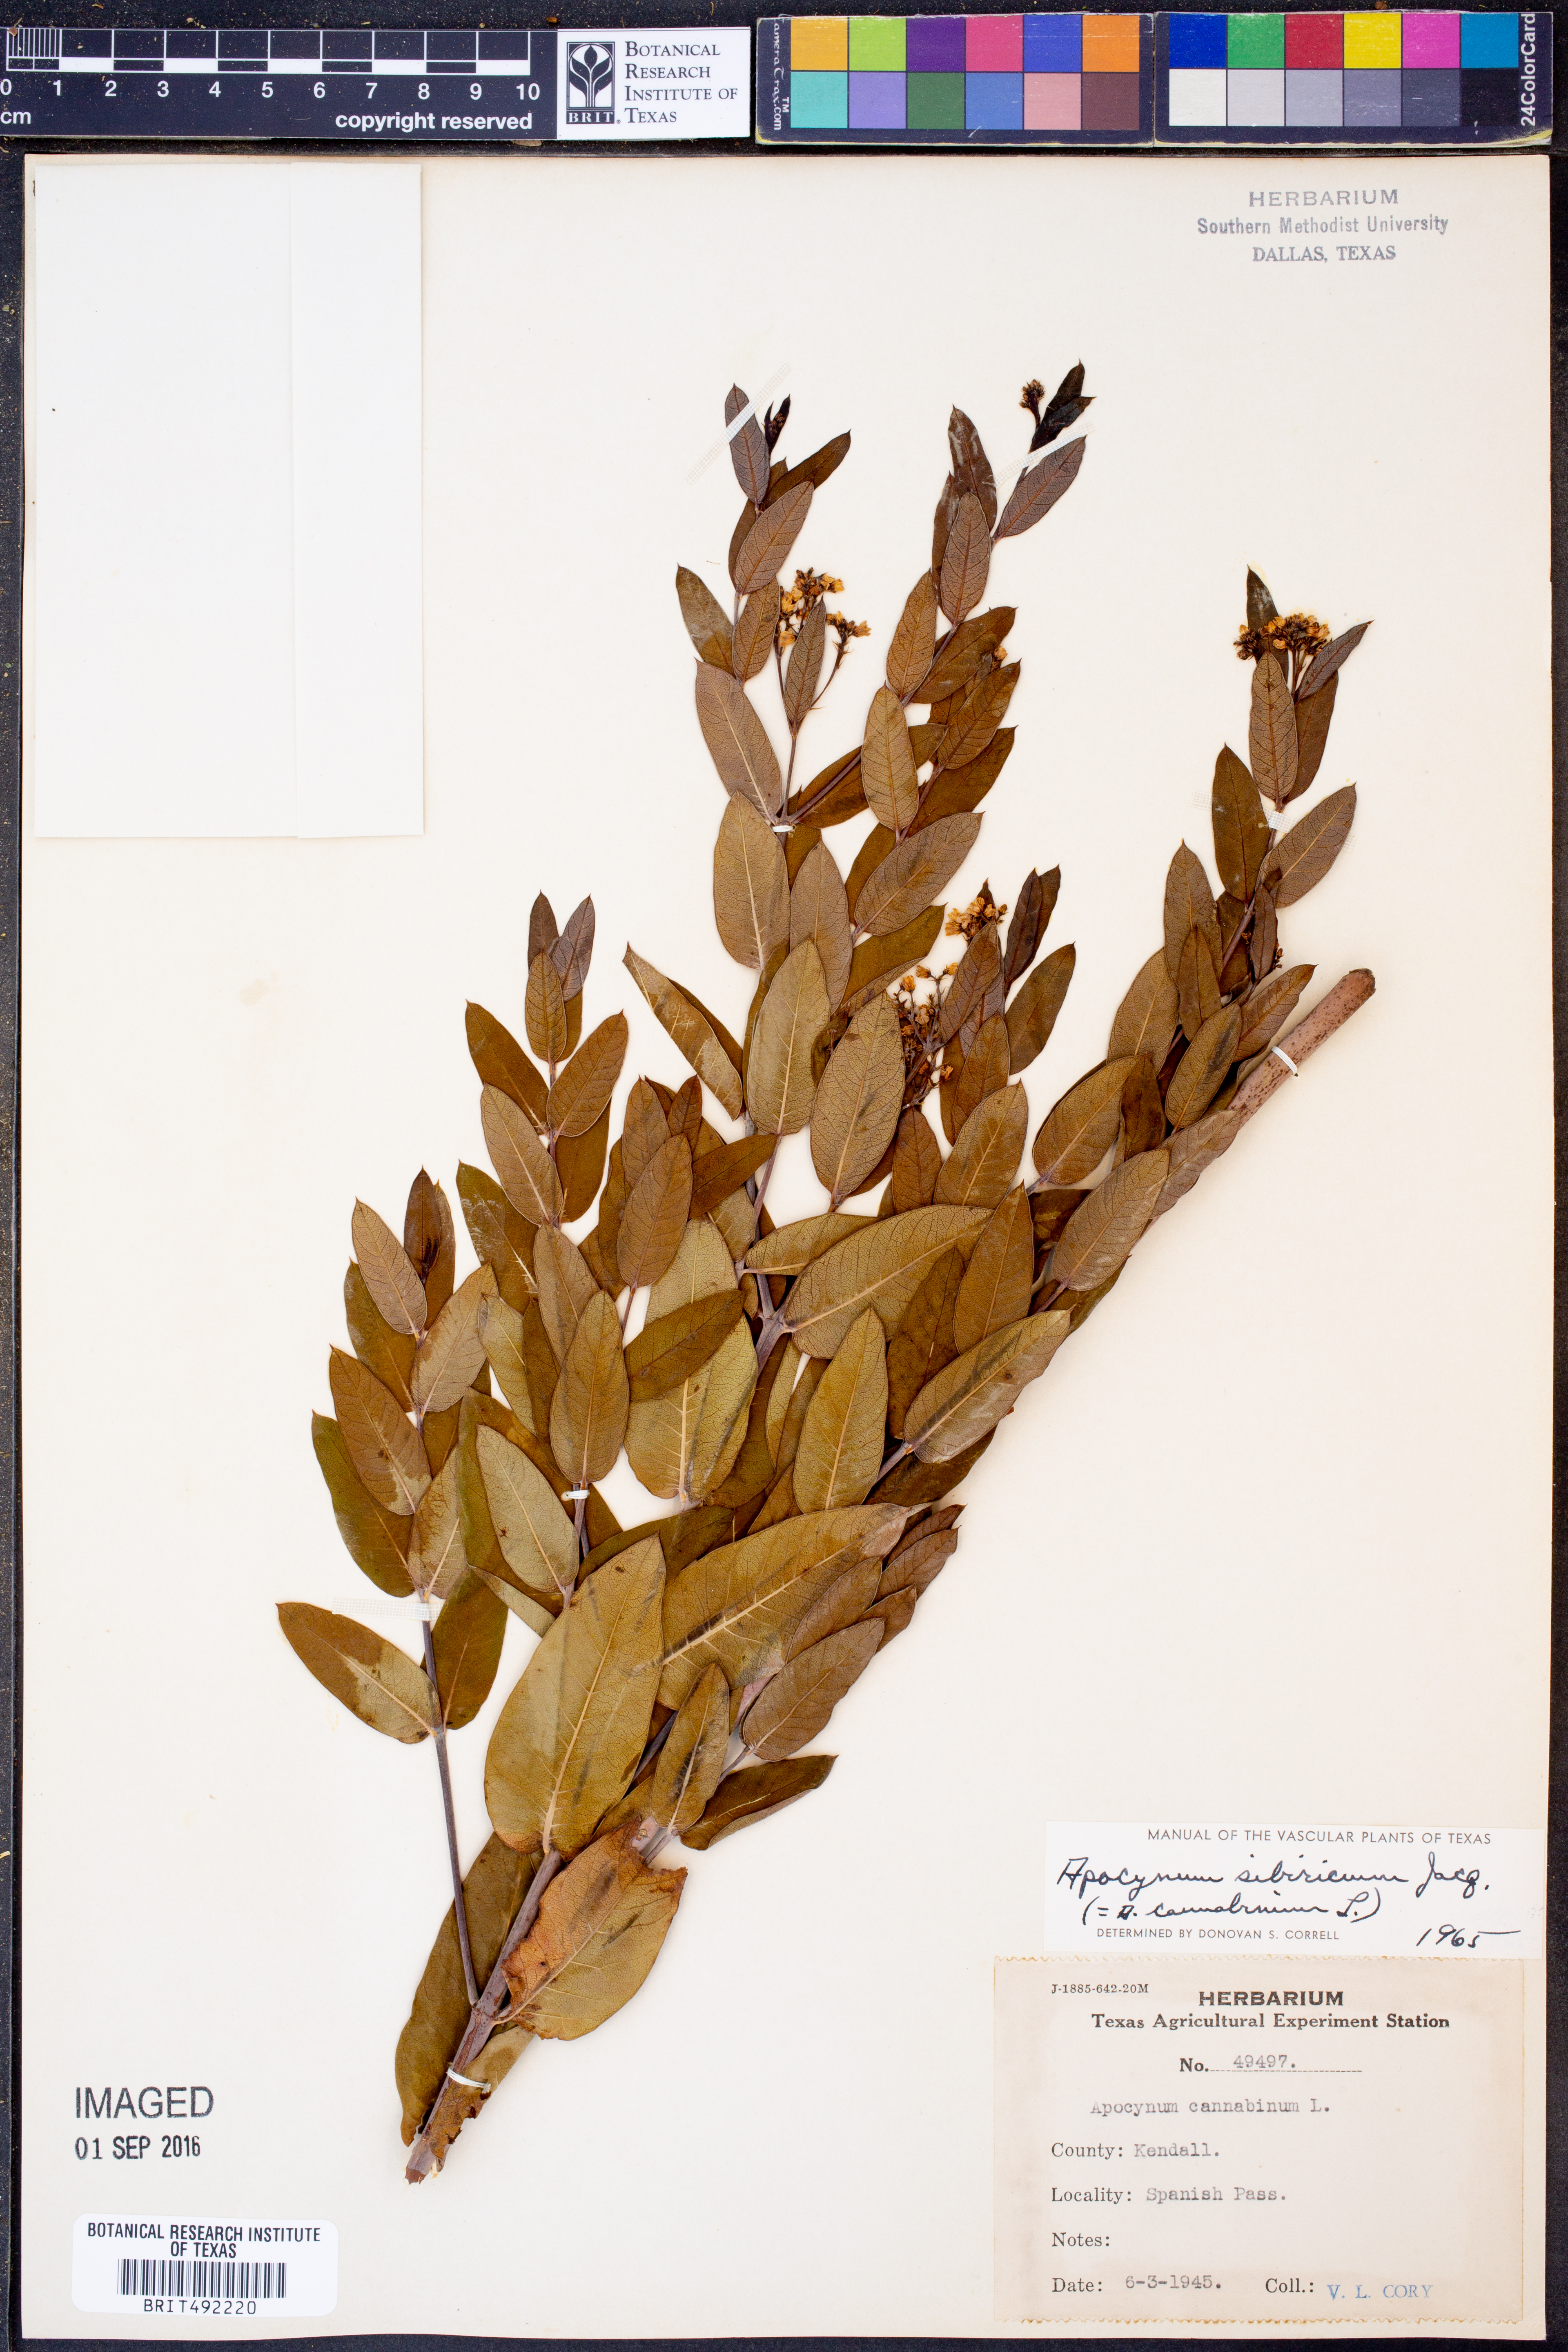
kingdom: Plantae
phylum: Tracheophyta
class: Magnoliopsida
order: Gentianales
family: Apocynaceae
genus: Apocynum
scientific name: Apocynum cannabinum
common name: Hemp dogbane
